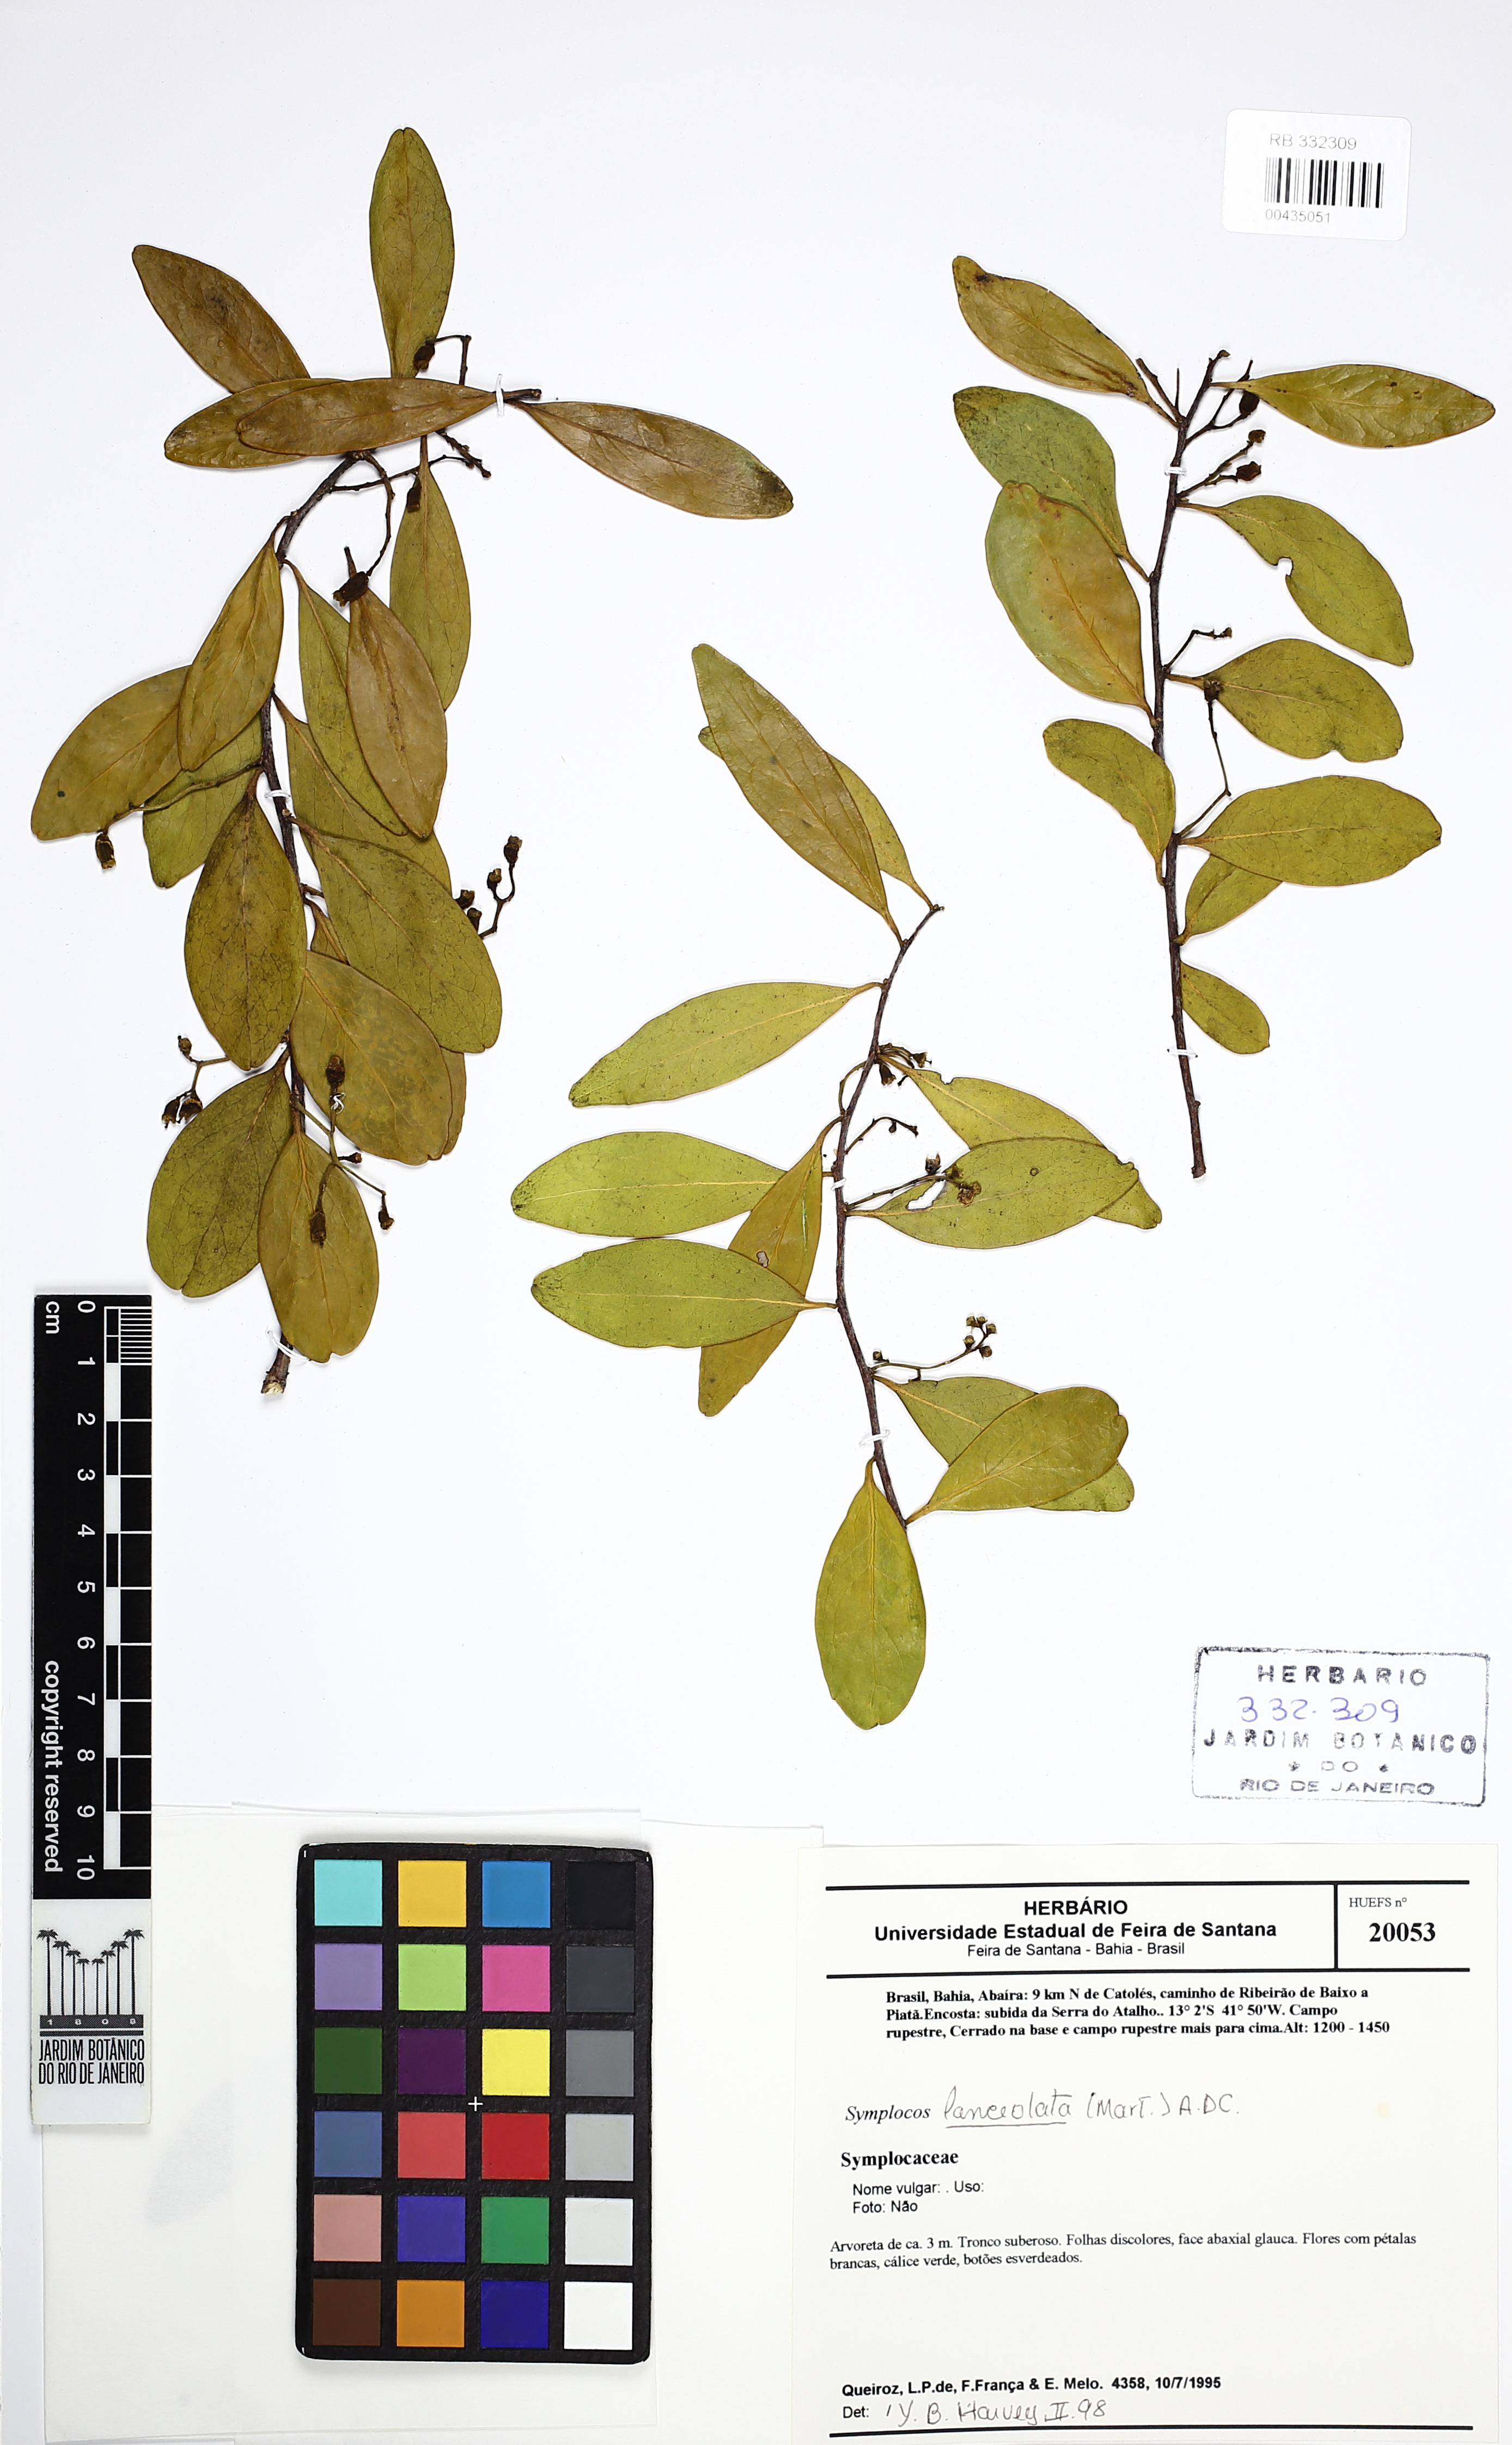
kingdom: Plantae
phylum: Tracheophyta
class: Magnoliopsida
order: Ericales
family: Symplocaceae
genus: Symplocos
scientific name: Symplocos oblongifolia
